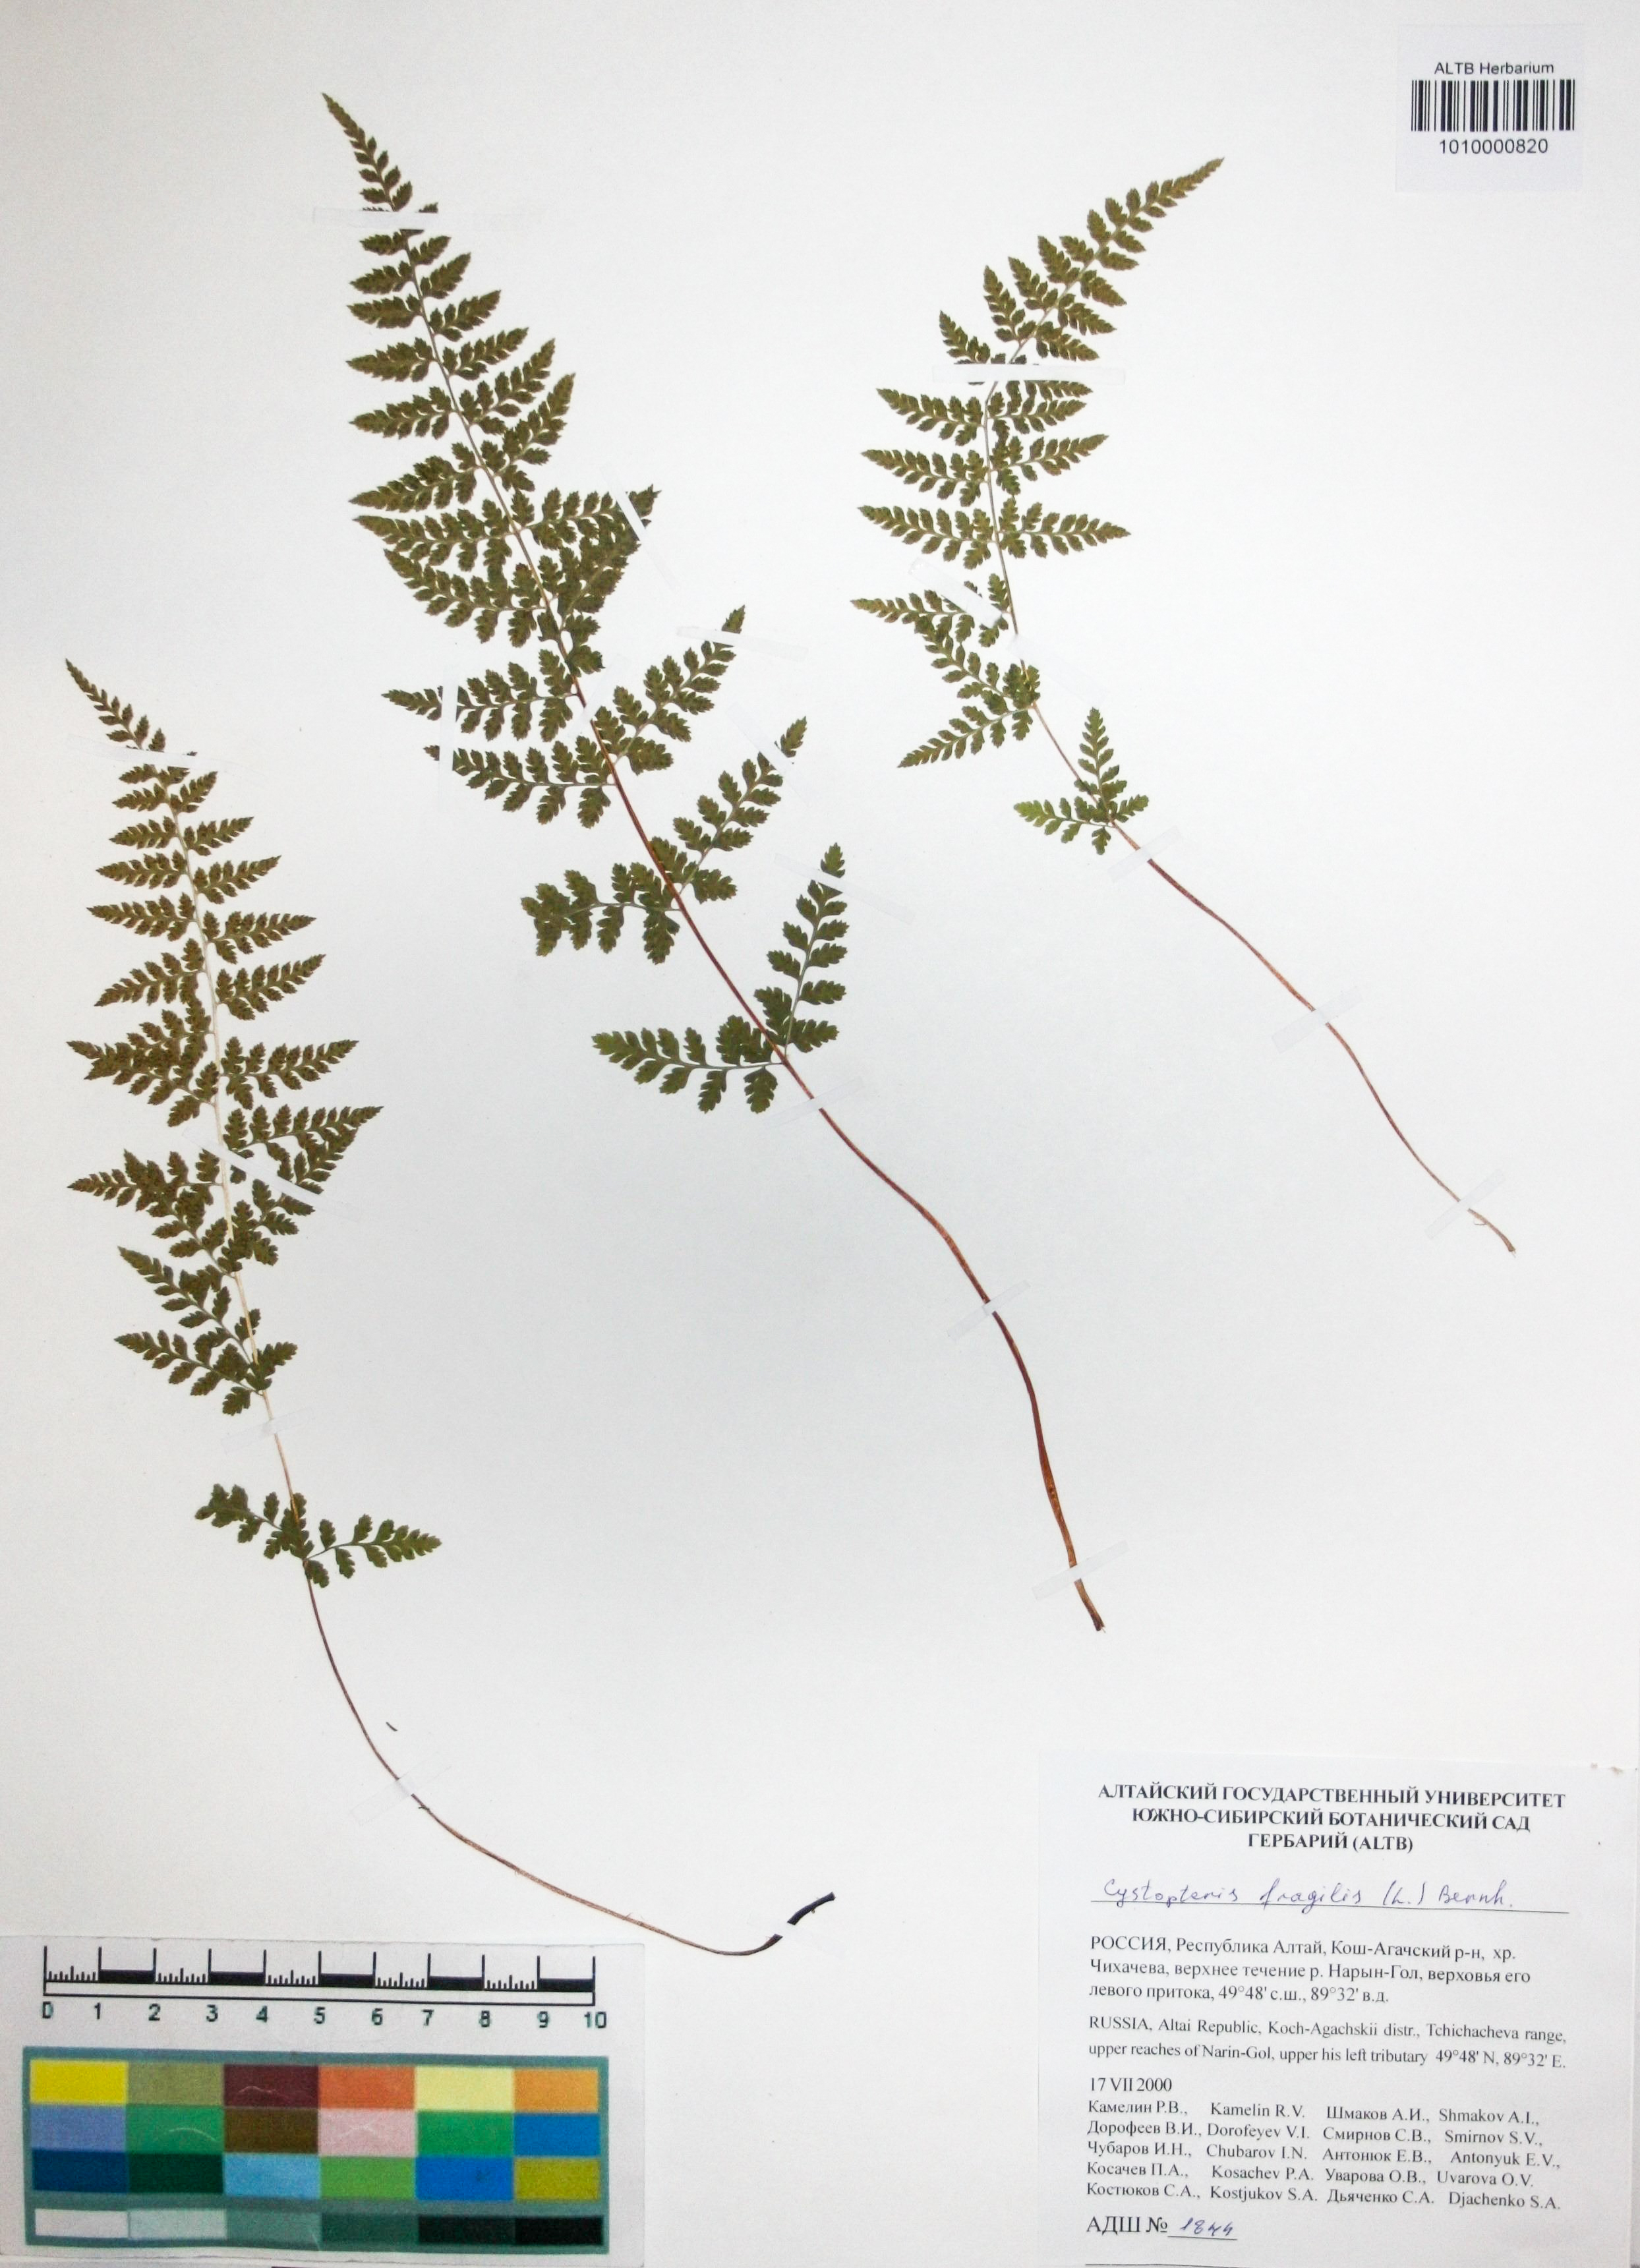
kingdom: Plantae
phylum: Tracheophyta
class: Polypodiopsida
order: Polypodiales
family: Cystopteridaceae
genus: Cystopteris
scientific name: Cystopteris fragilis
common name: Brittle bladder fern
